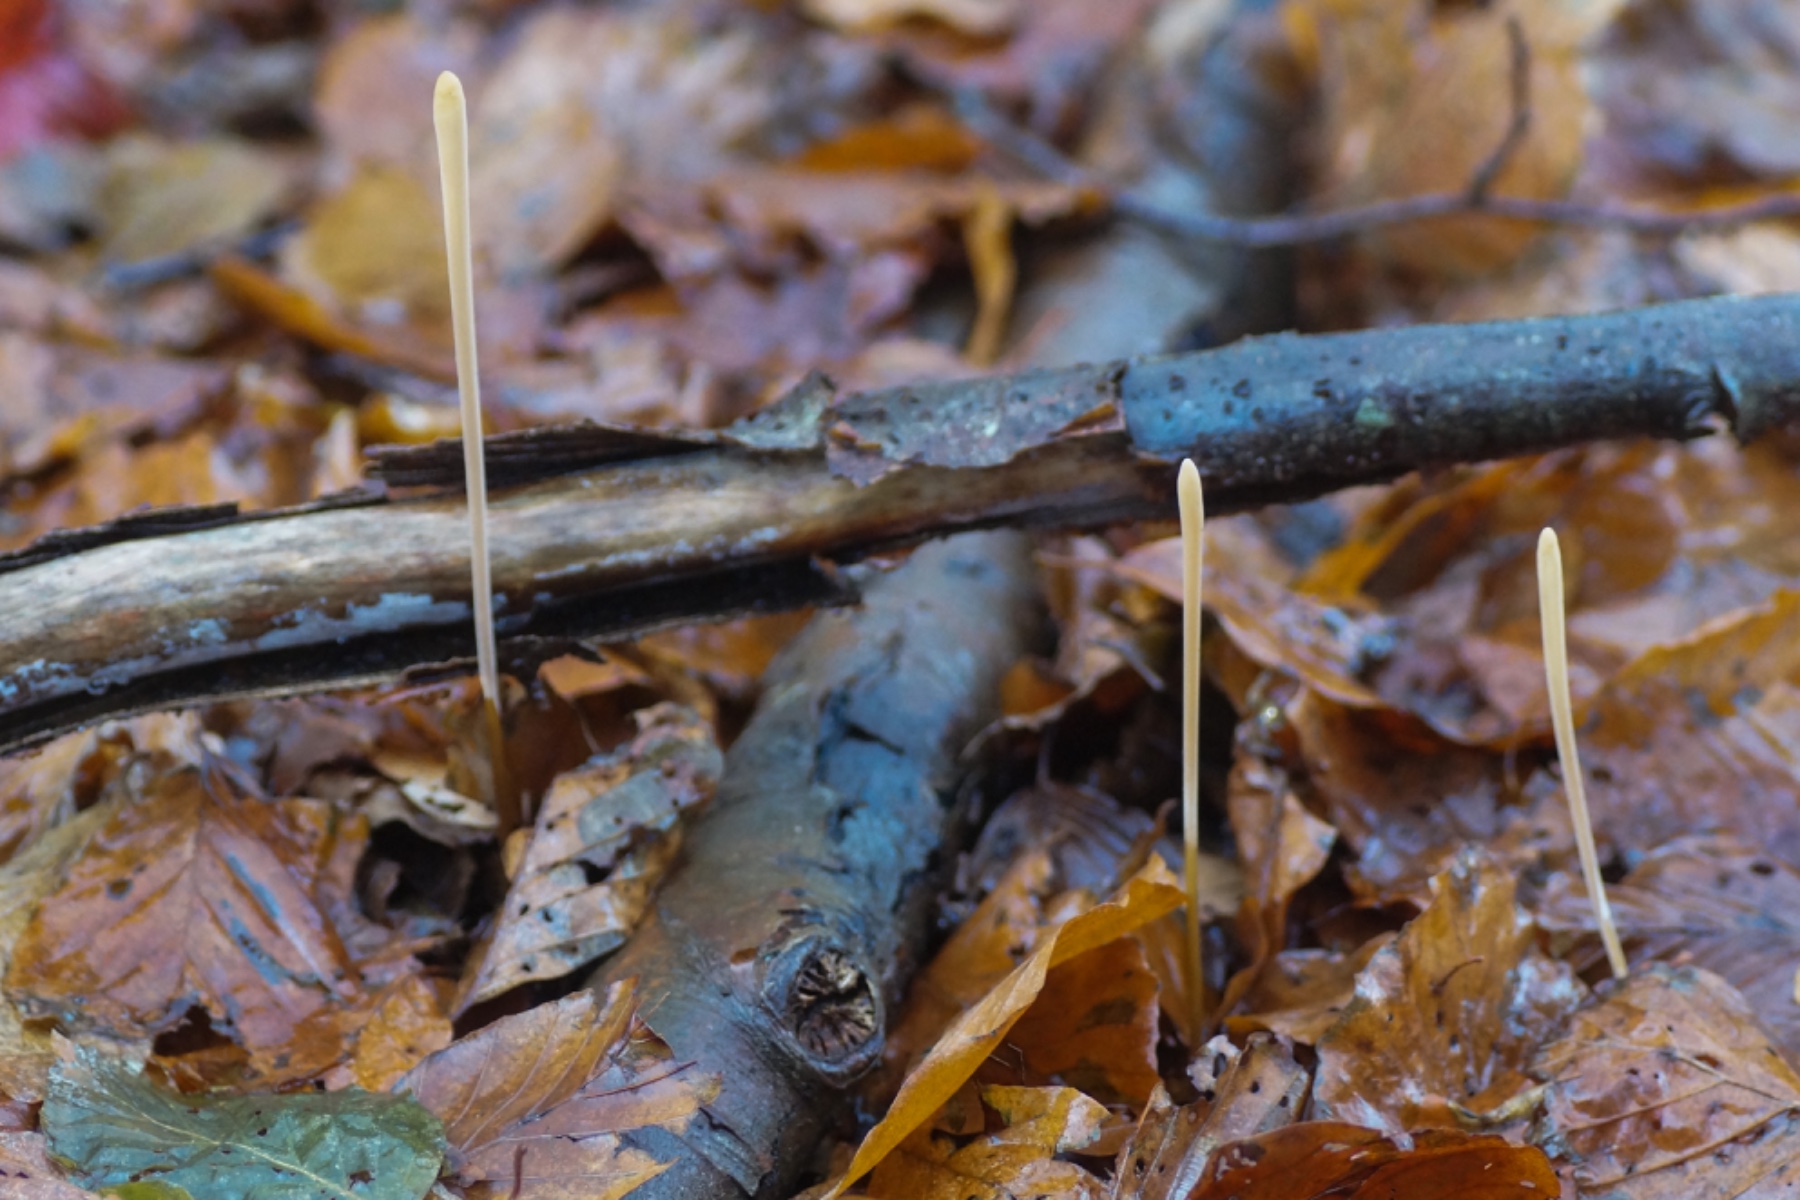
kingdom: Fungi
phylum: Basidiomycota
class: Agaricomycetes
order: Agaricales
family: Typhulaceae
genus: Typhula
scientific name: Typhula fistulosa
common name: pibet rørkølle
